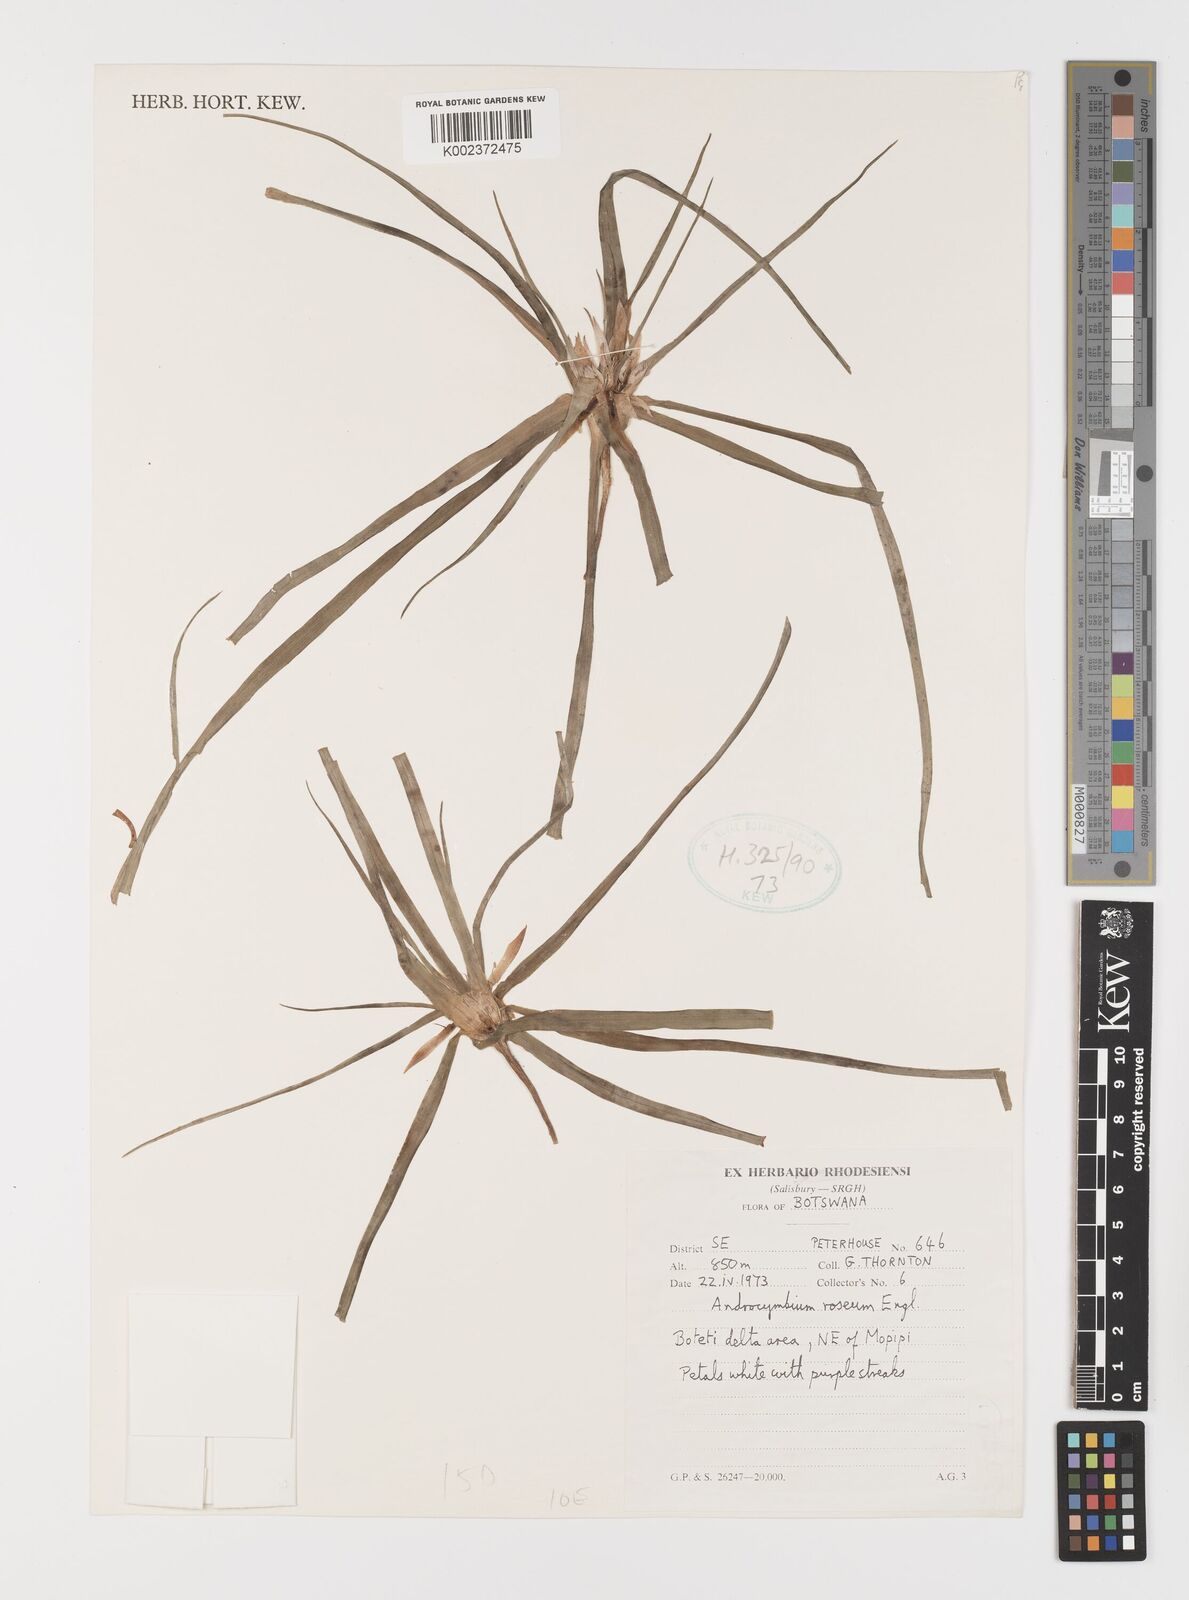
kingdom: Plantae
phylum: Tracheophyta
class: Liliopsida
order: Liliales
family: Colchicaceae
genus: Colchicum
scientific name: Colchicum roseum
